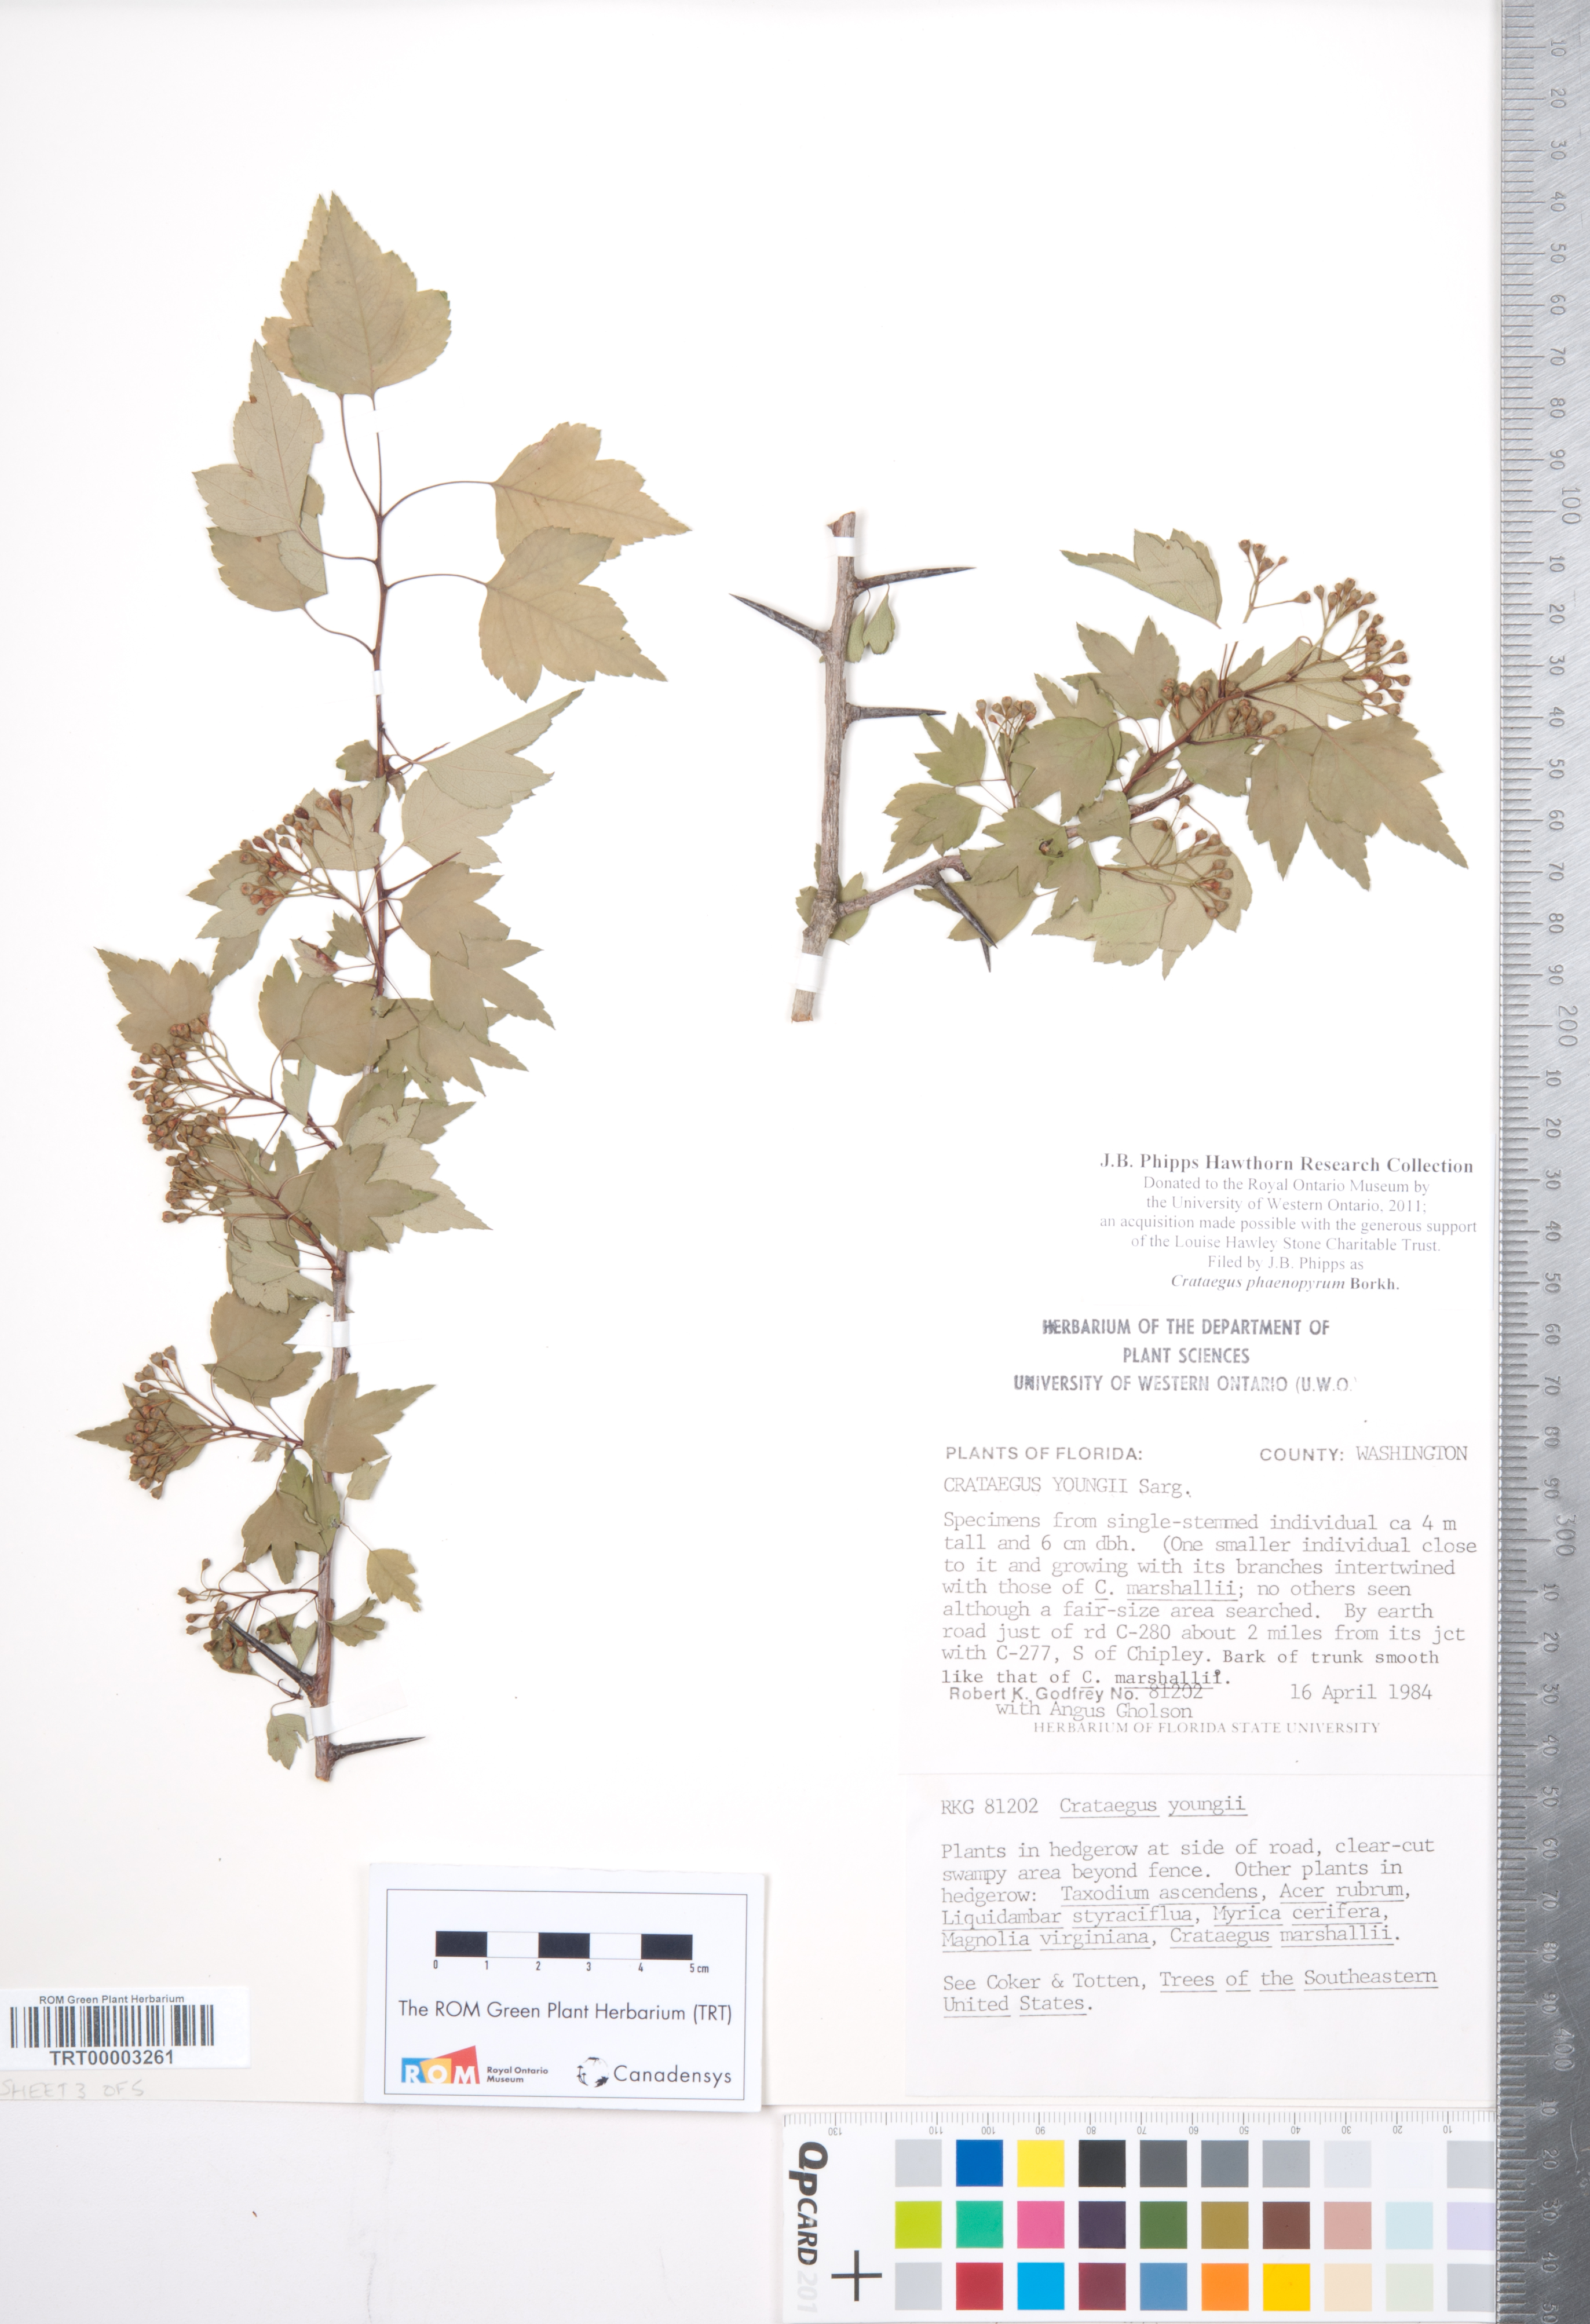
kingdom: Plantae
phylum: Tracheophyta
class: Magnoliopsida
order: Rosales
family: Rosaceae
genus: Crataegus
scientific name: Crataegus phaenopyrum
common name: Washington hawthorn
